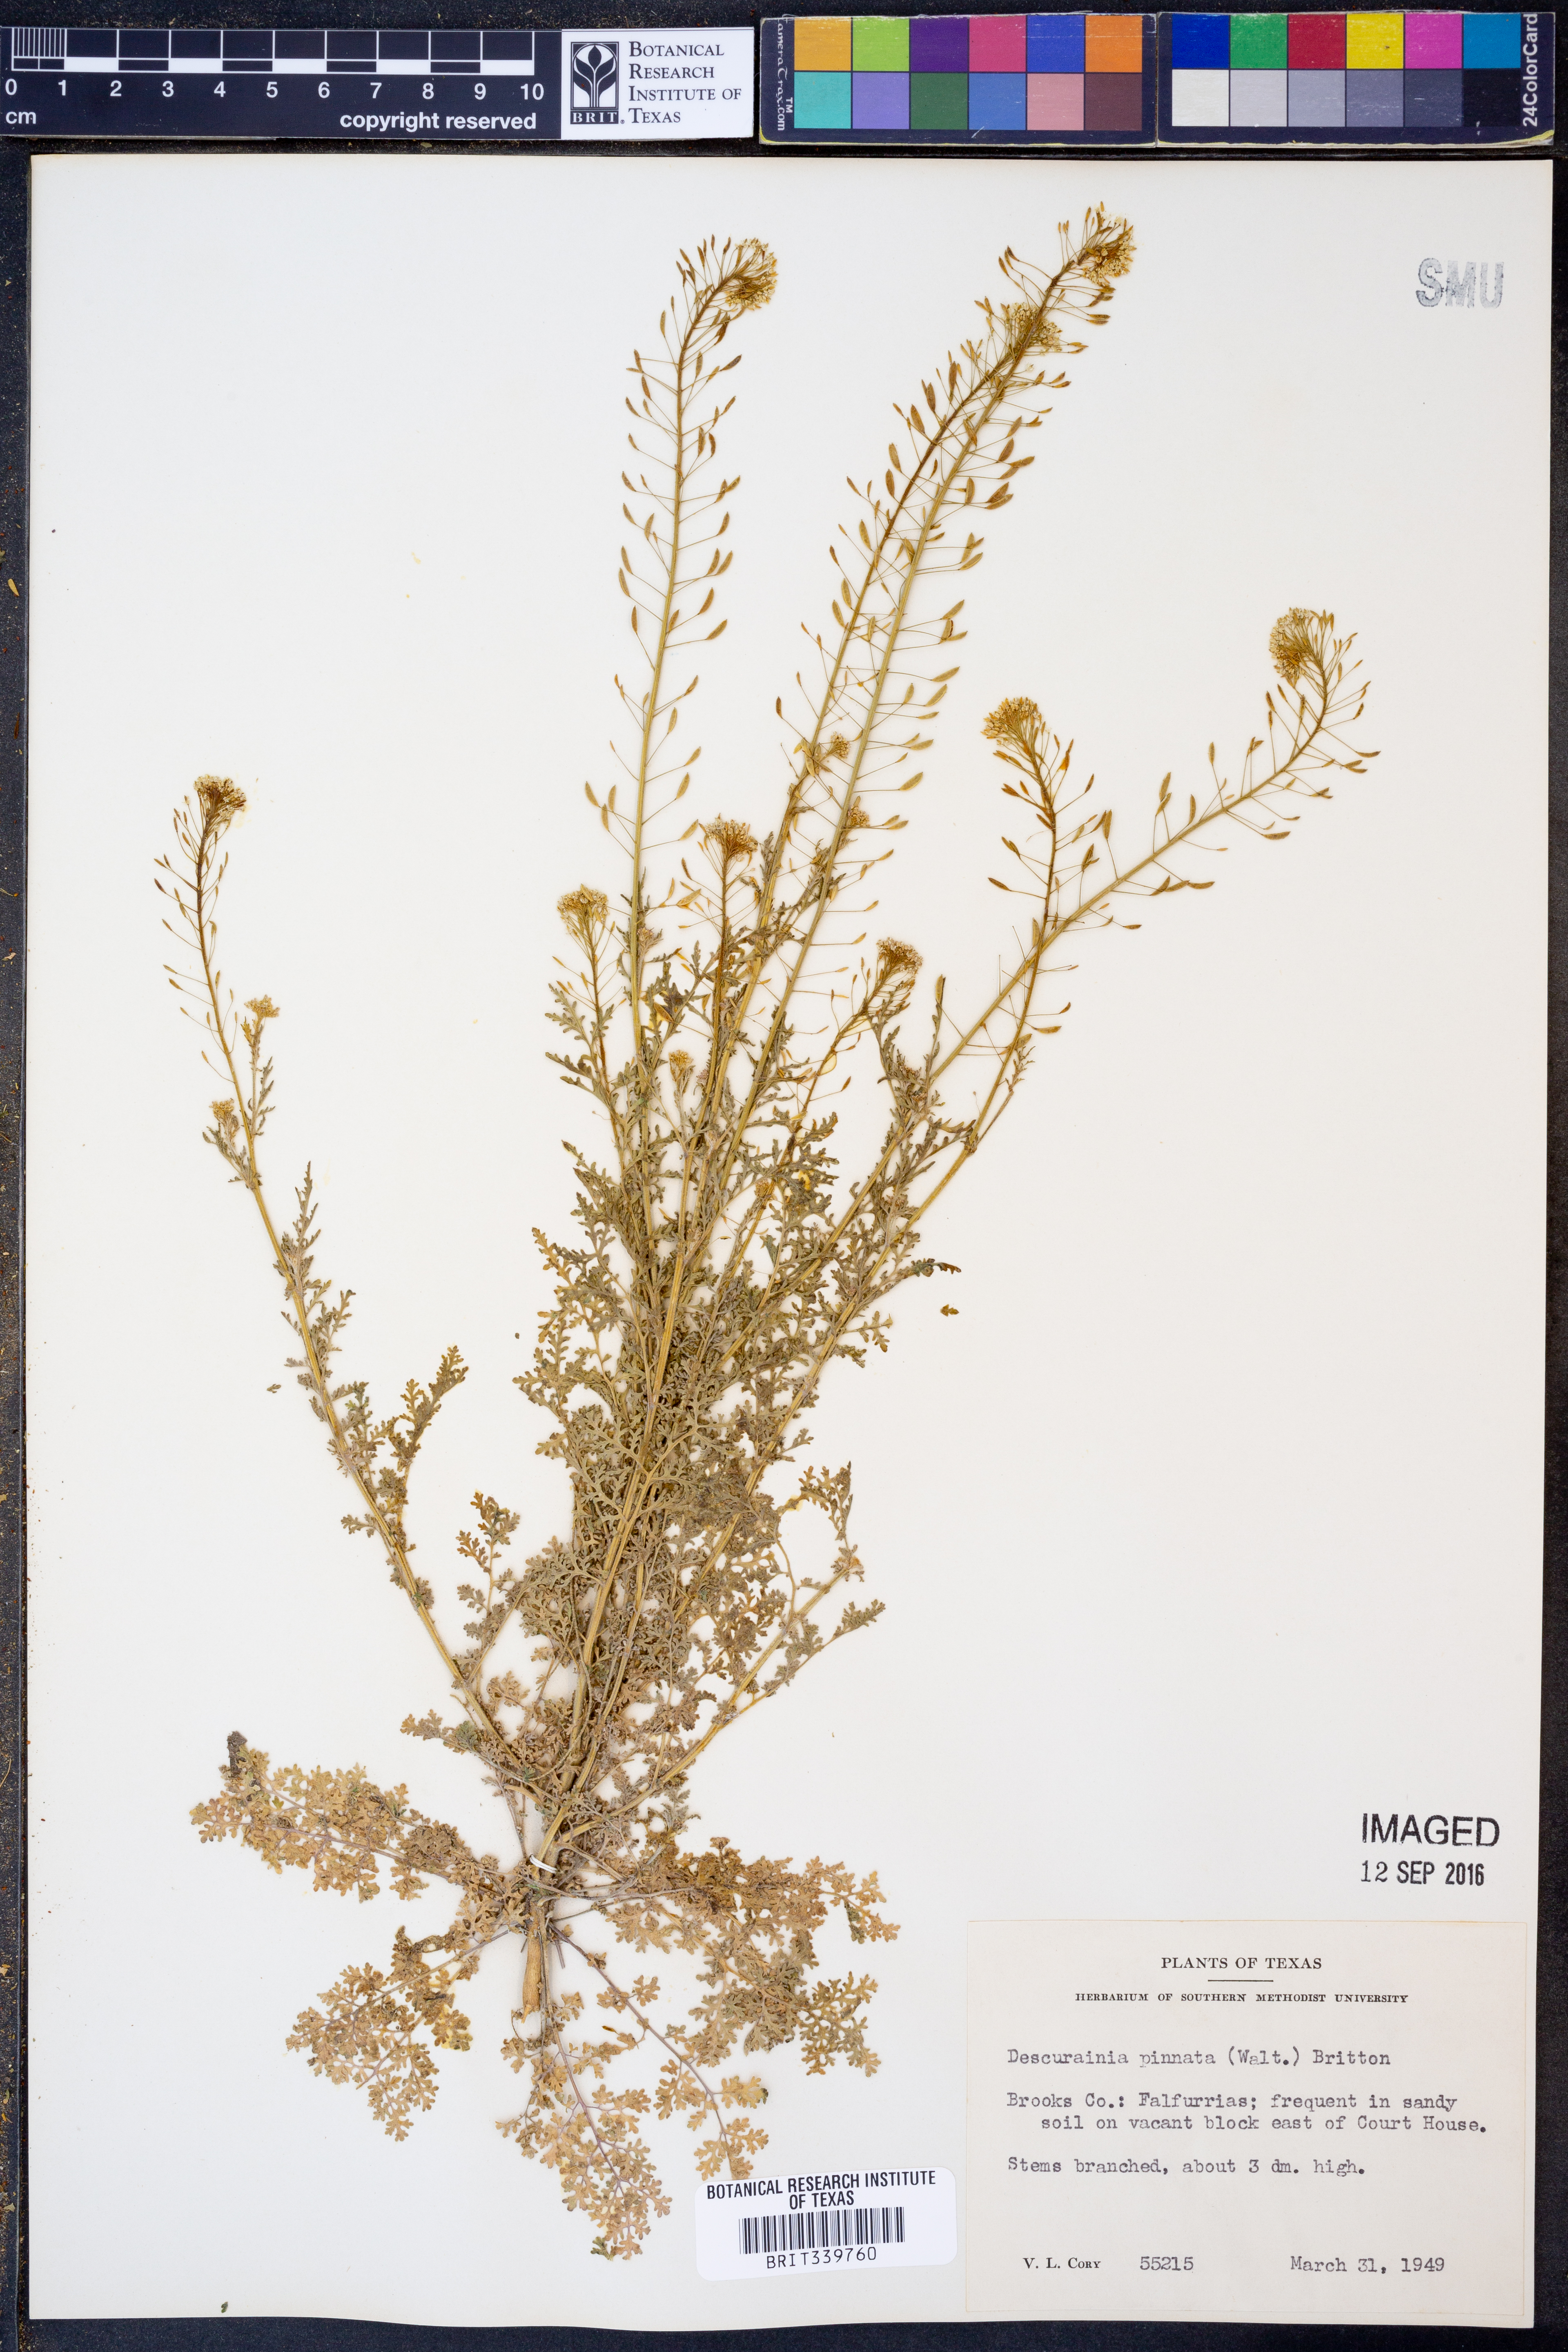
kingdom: Plantae
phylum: Tracheophyta
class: Magnoliopsida
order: Brassicales
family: Brassicaceae
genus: Descurainia
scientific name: Descurainia pinnata
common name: Western tansy mustard
